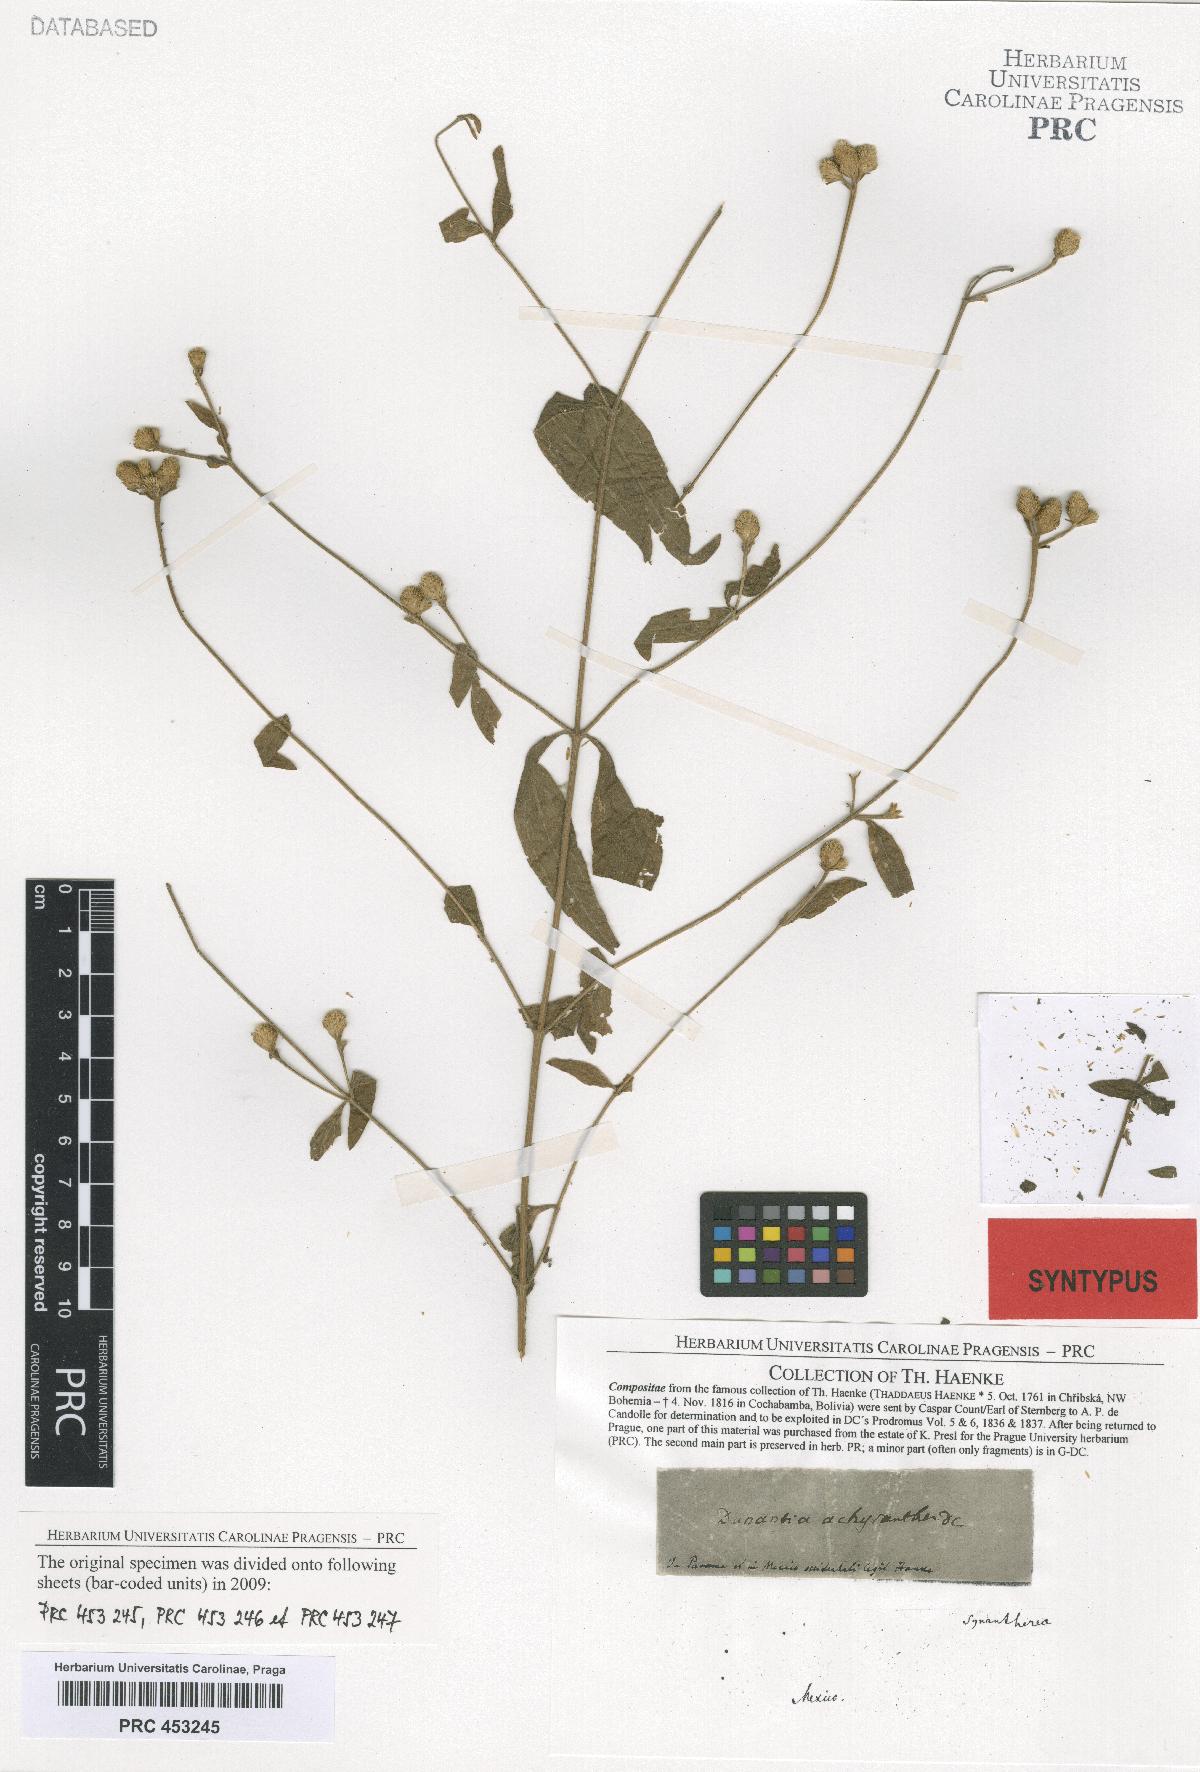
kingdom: Plantae
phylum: Tracheophyta
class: Magnoliopsida
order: Asterales
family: Asteraceae
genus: Isocarpha
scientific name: Isocarpha oppositifolia
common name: Rio grande pearlhead
